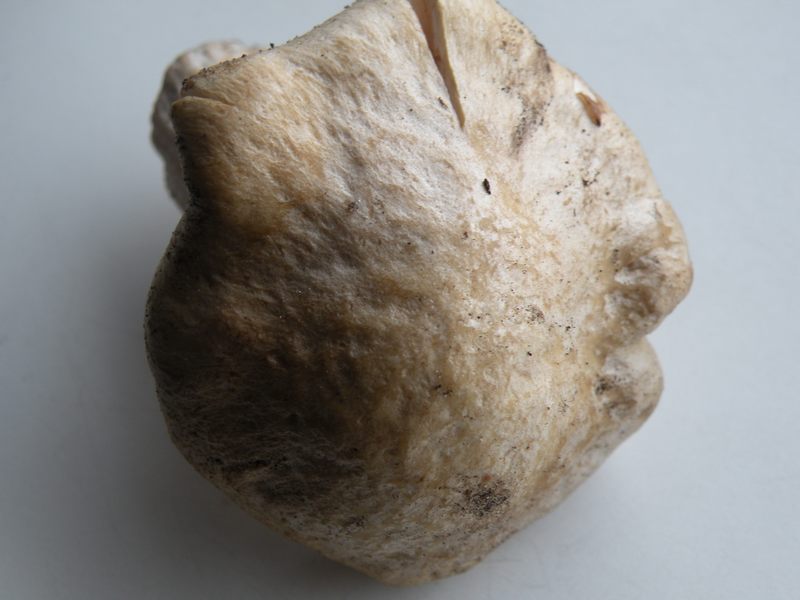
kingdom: Fungi
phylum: Basidiomycota
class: Agaricomycetes
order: Agaricales
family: Entolomataceae
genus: Entoloma
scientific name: Entoloma sepium
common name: slåen-rødblad
